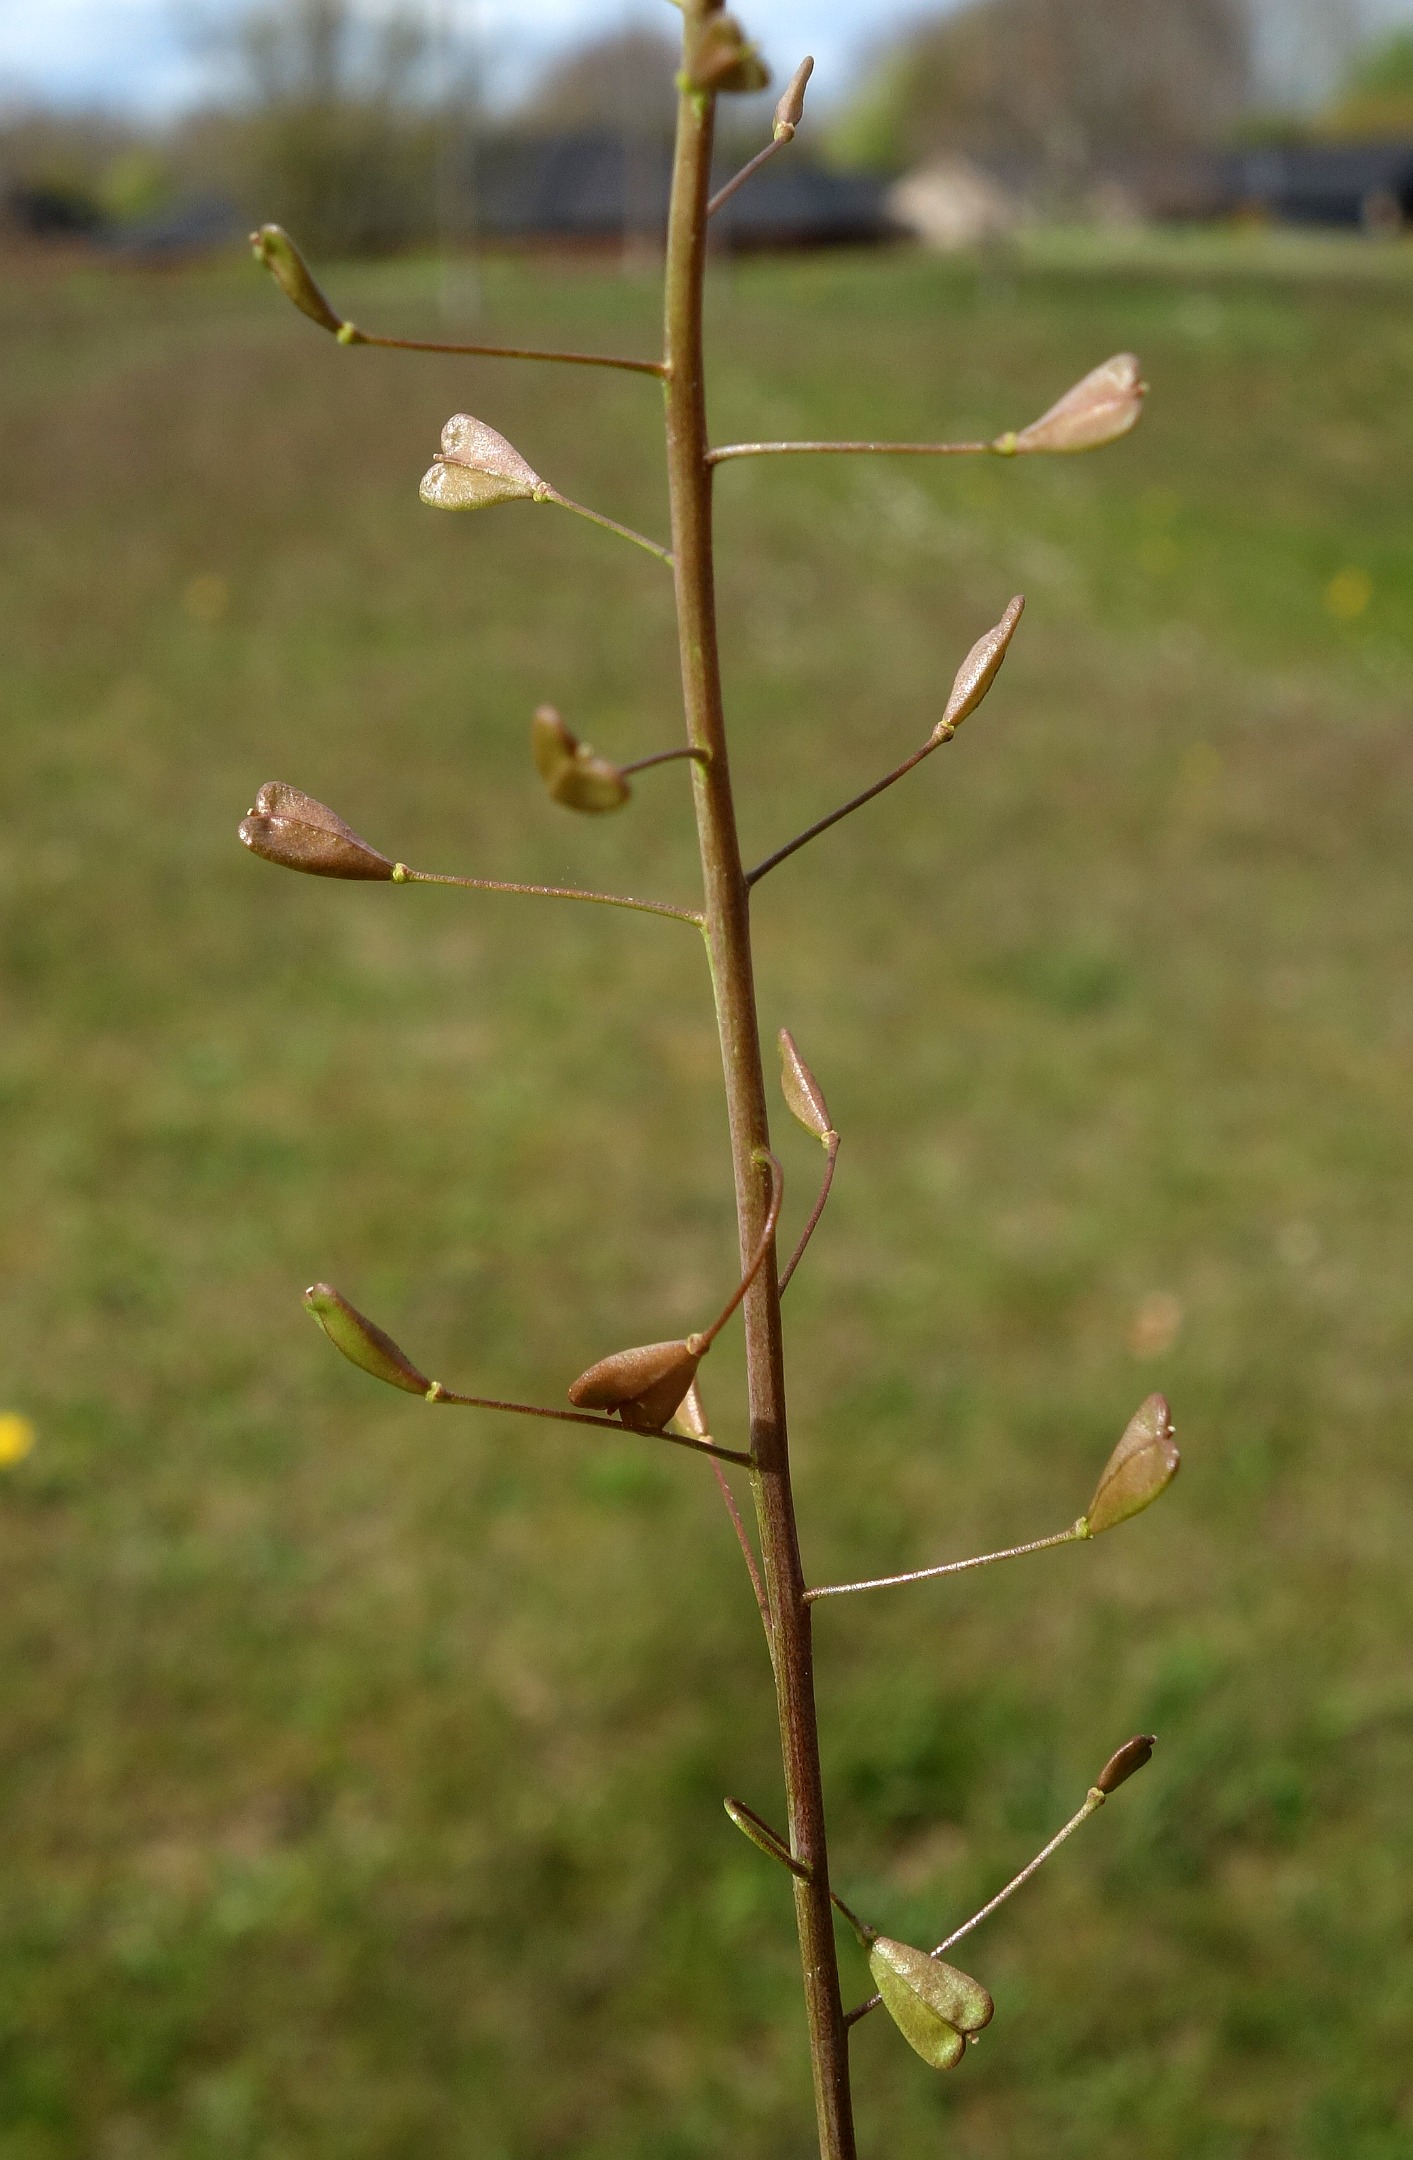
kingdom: Plantae
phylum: Tracheophyta
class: Magnoliopsida
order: Brassicales
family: Brassicaceae
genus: Capsella
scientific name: Capsella bursa-pastoris
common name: Hyrdetaske
